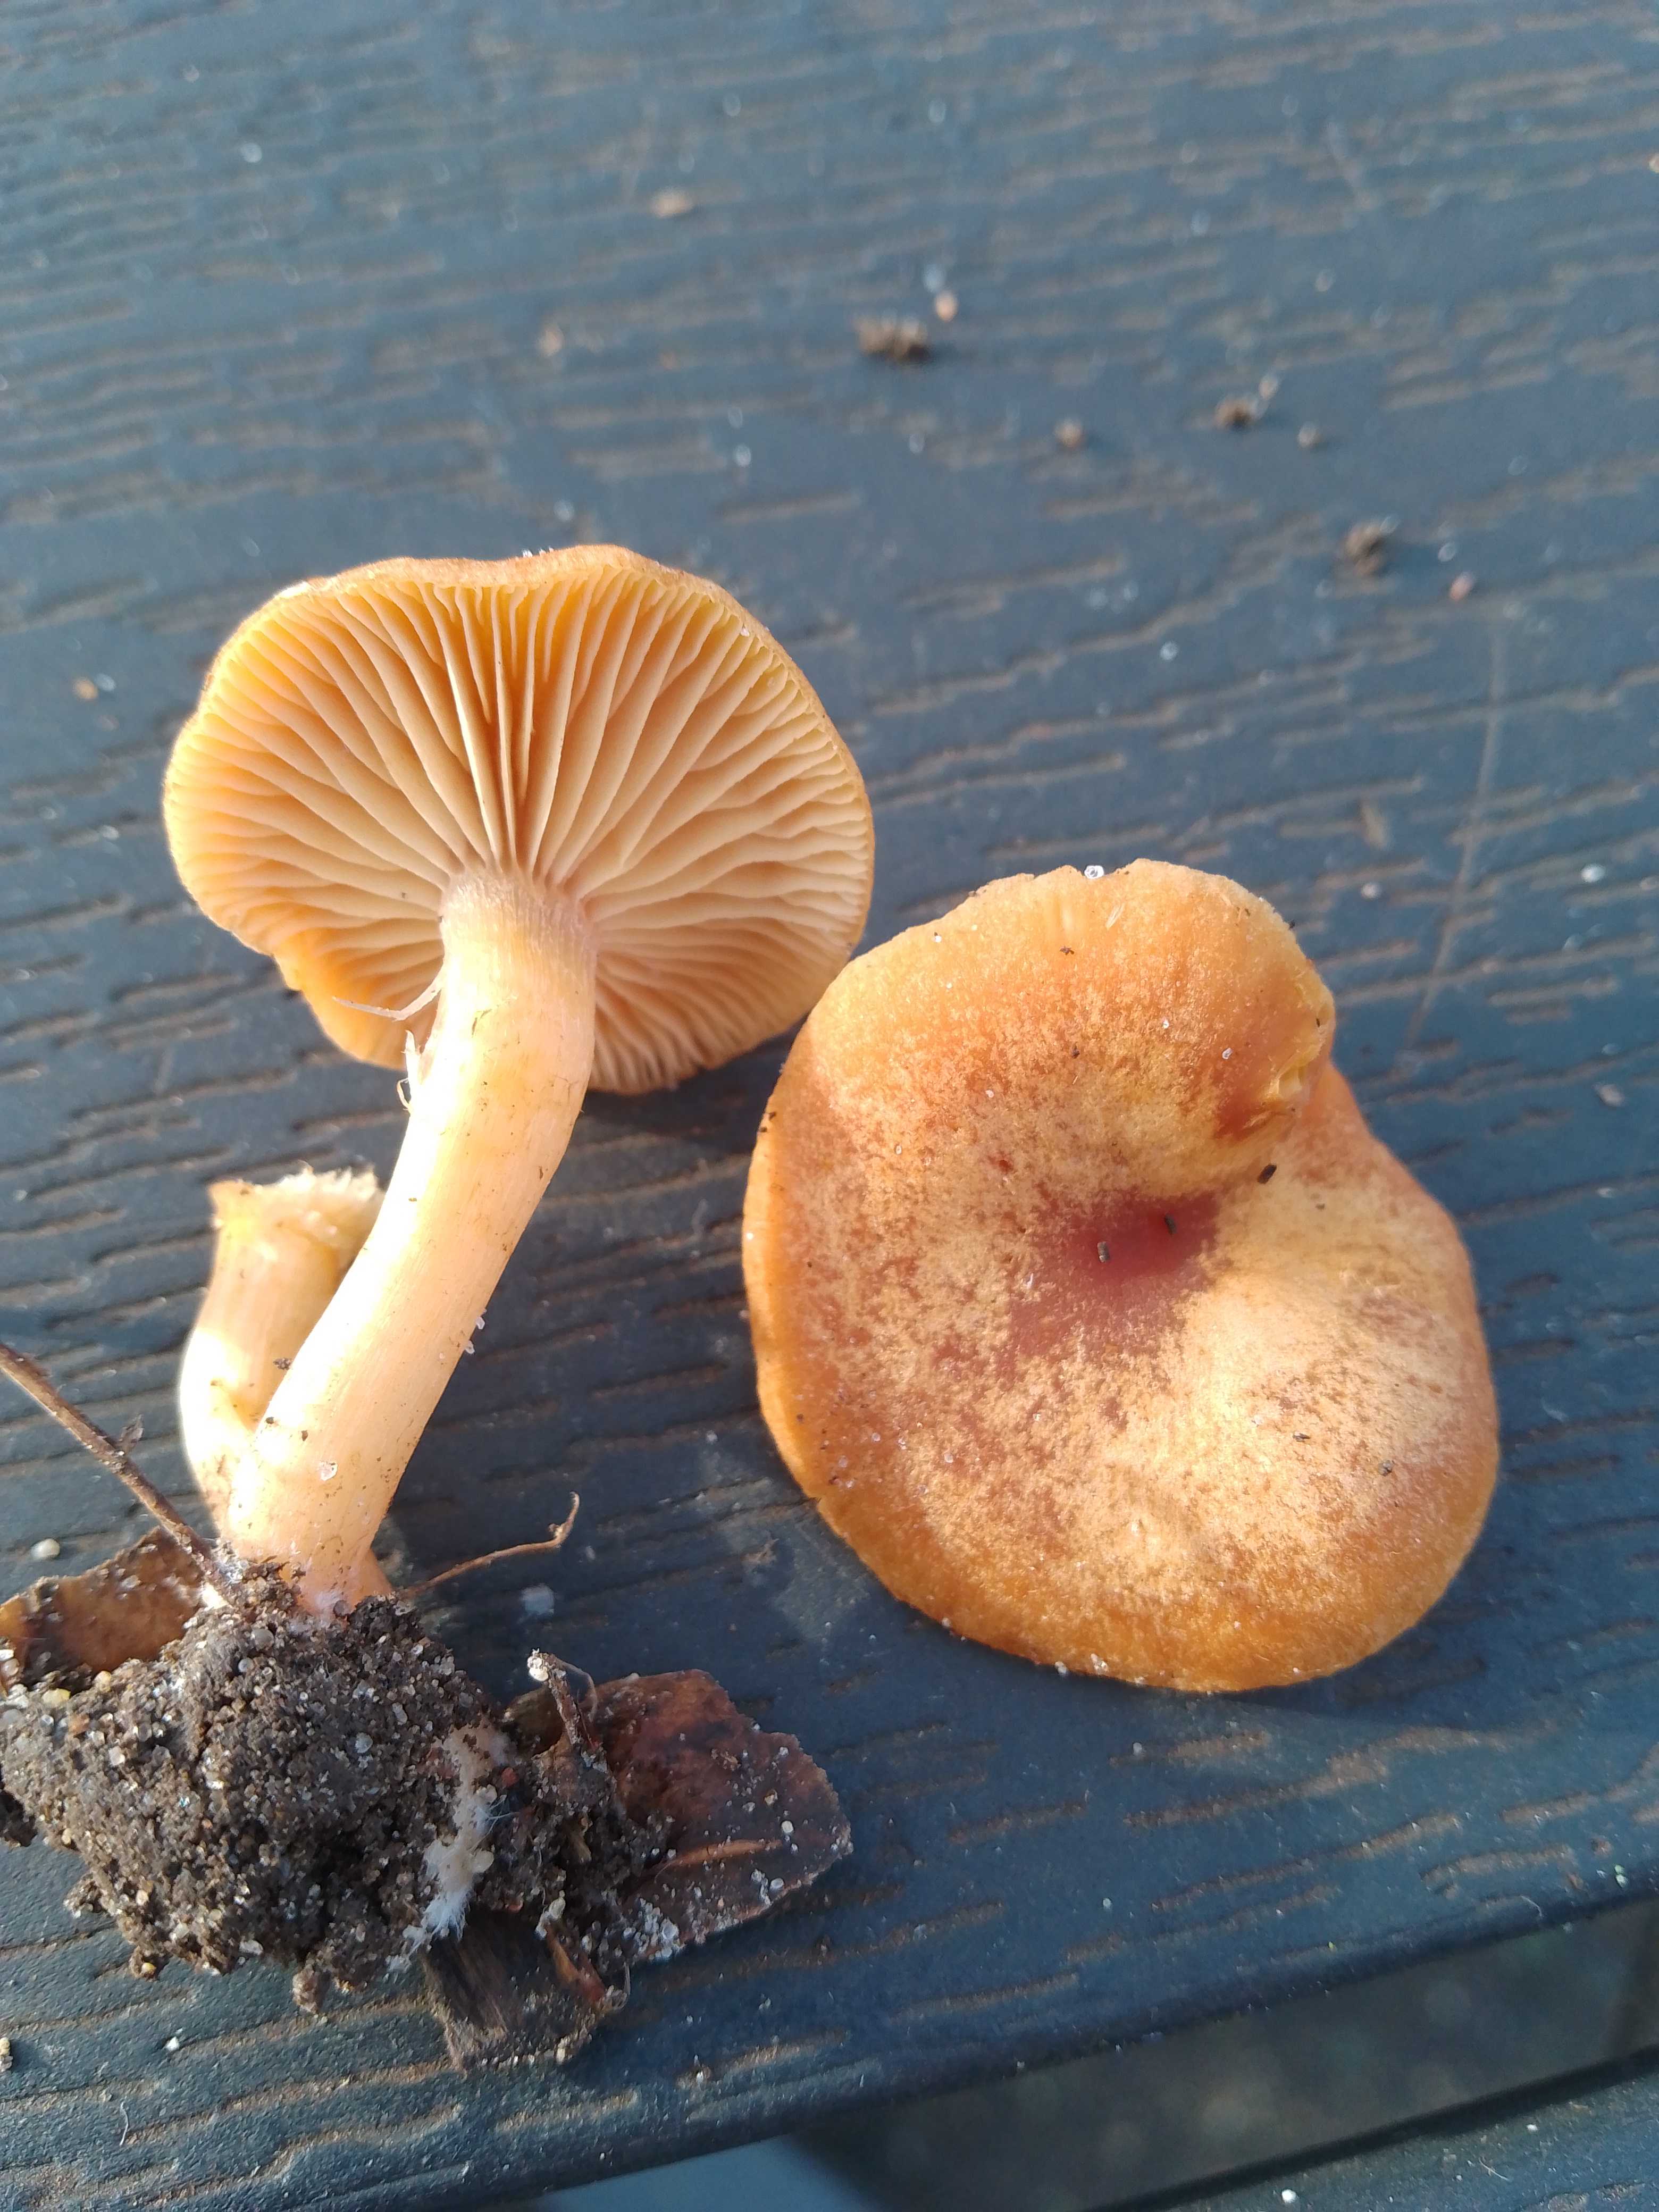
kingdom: Fungi
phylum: Basidiomycota
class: Agaricomycetes
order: Agaricales
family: Tubariaceae
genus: Tubaria
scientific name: Tubaria furfuracea
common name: kliddet fnughat
